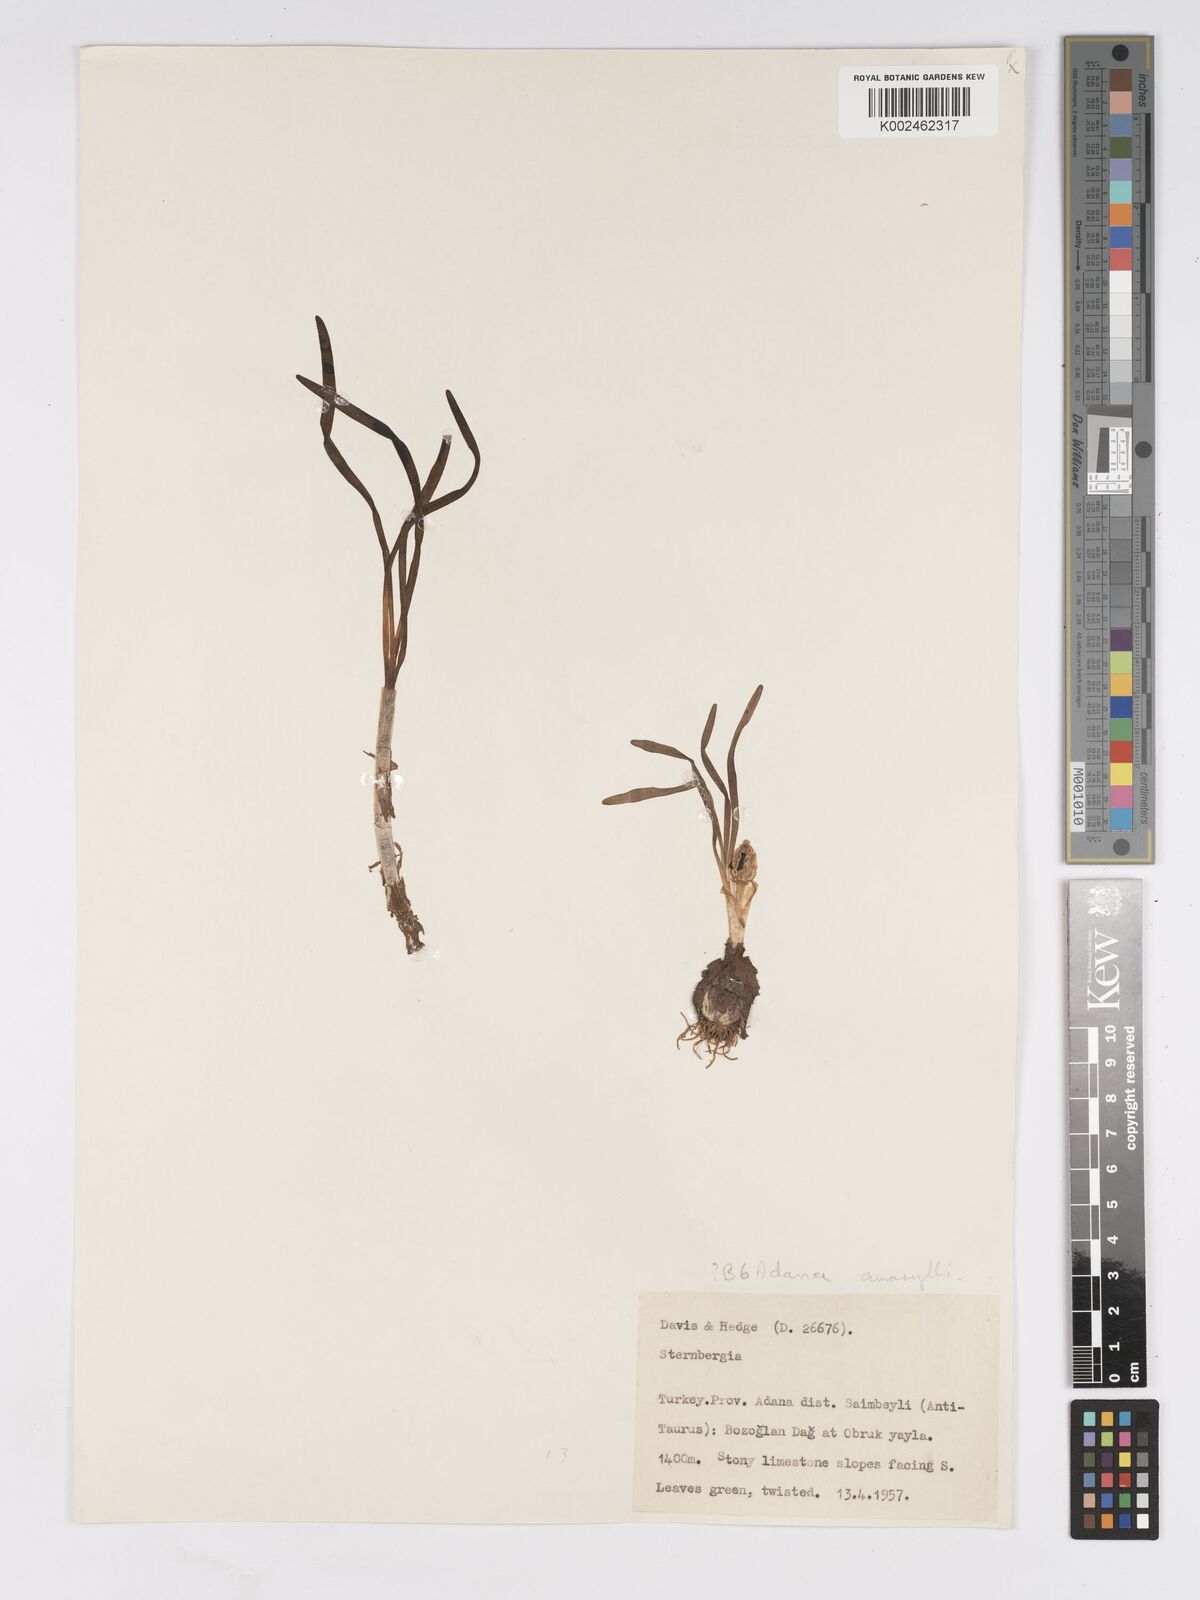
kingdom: Plantae
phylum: Tracheophyta
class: Liliopsida
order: Asparagales
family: Amaryllidaceae
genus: Sternbergia
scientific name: Sternbergia colchiciflora
